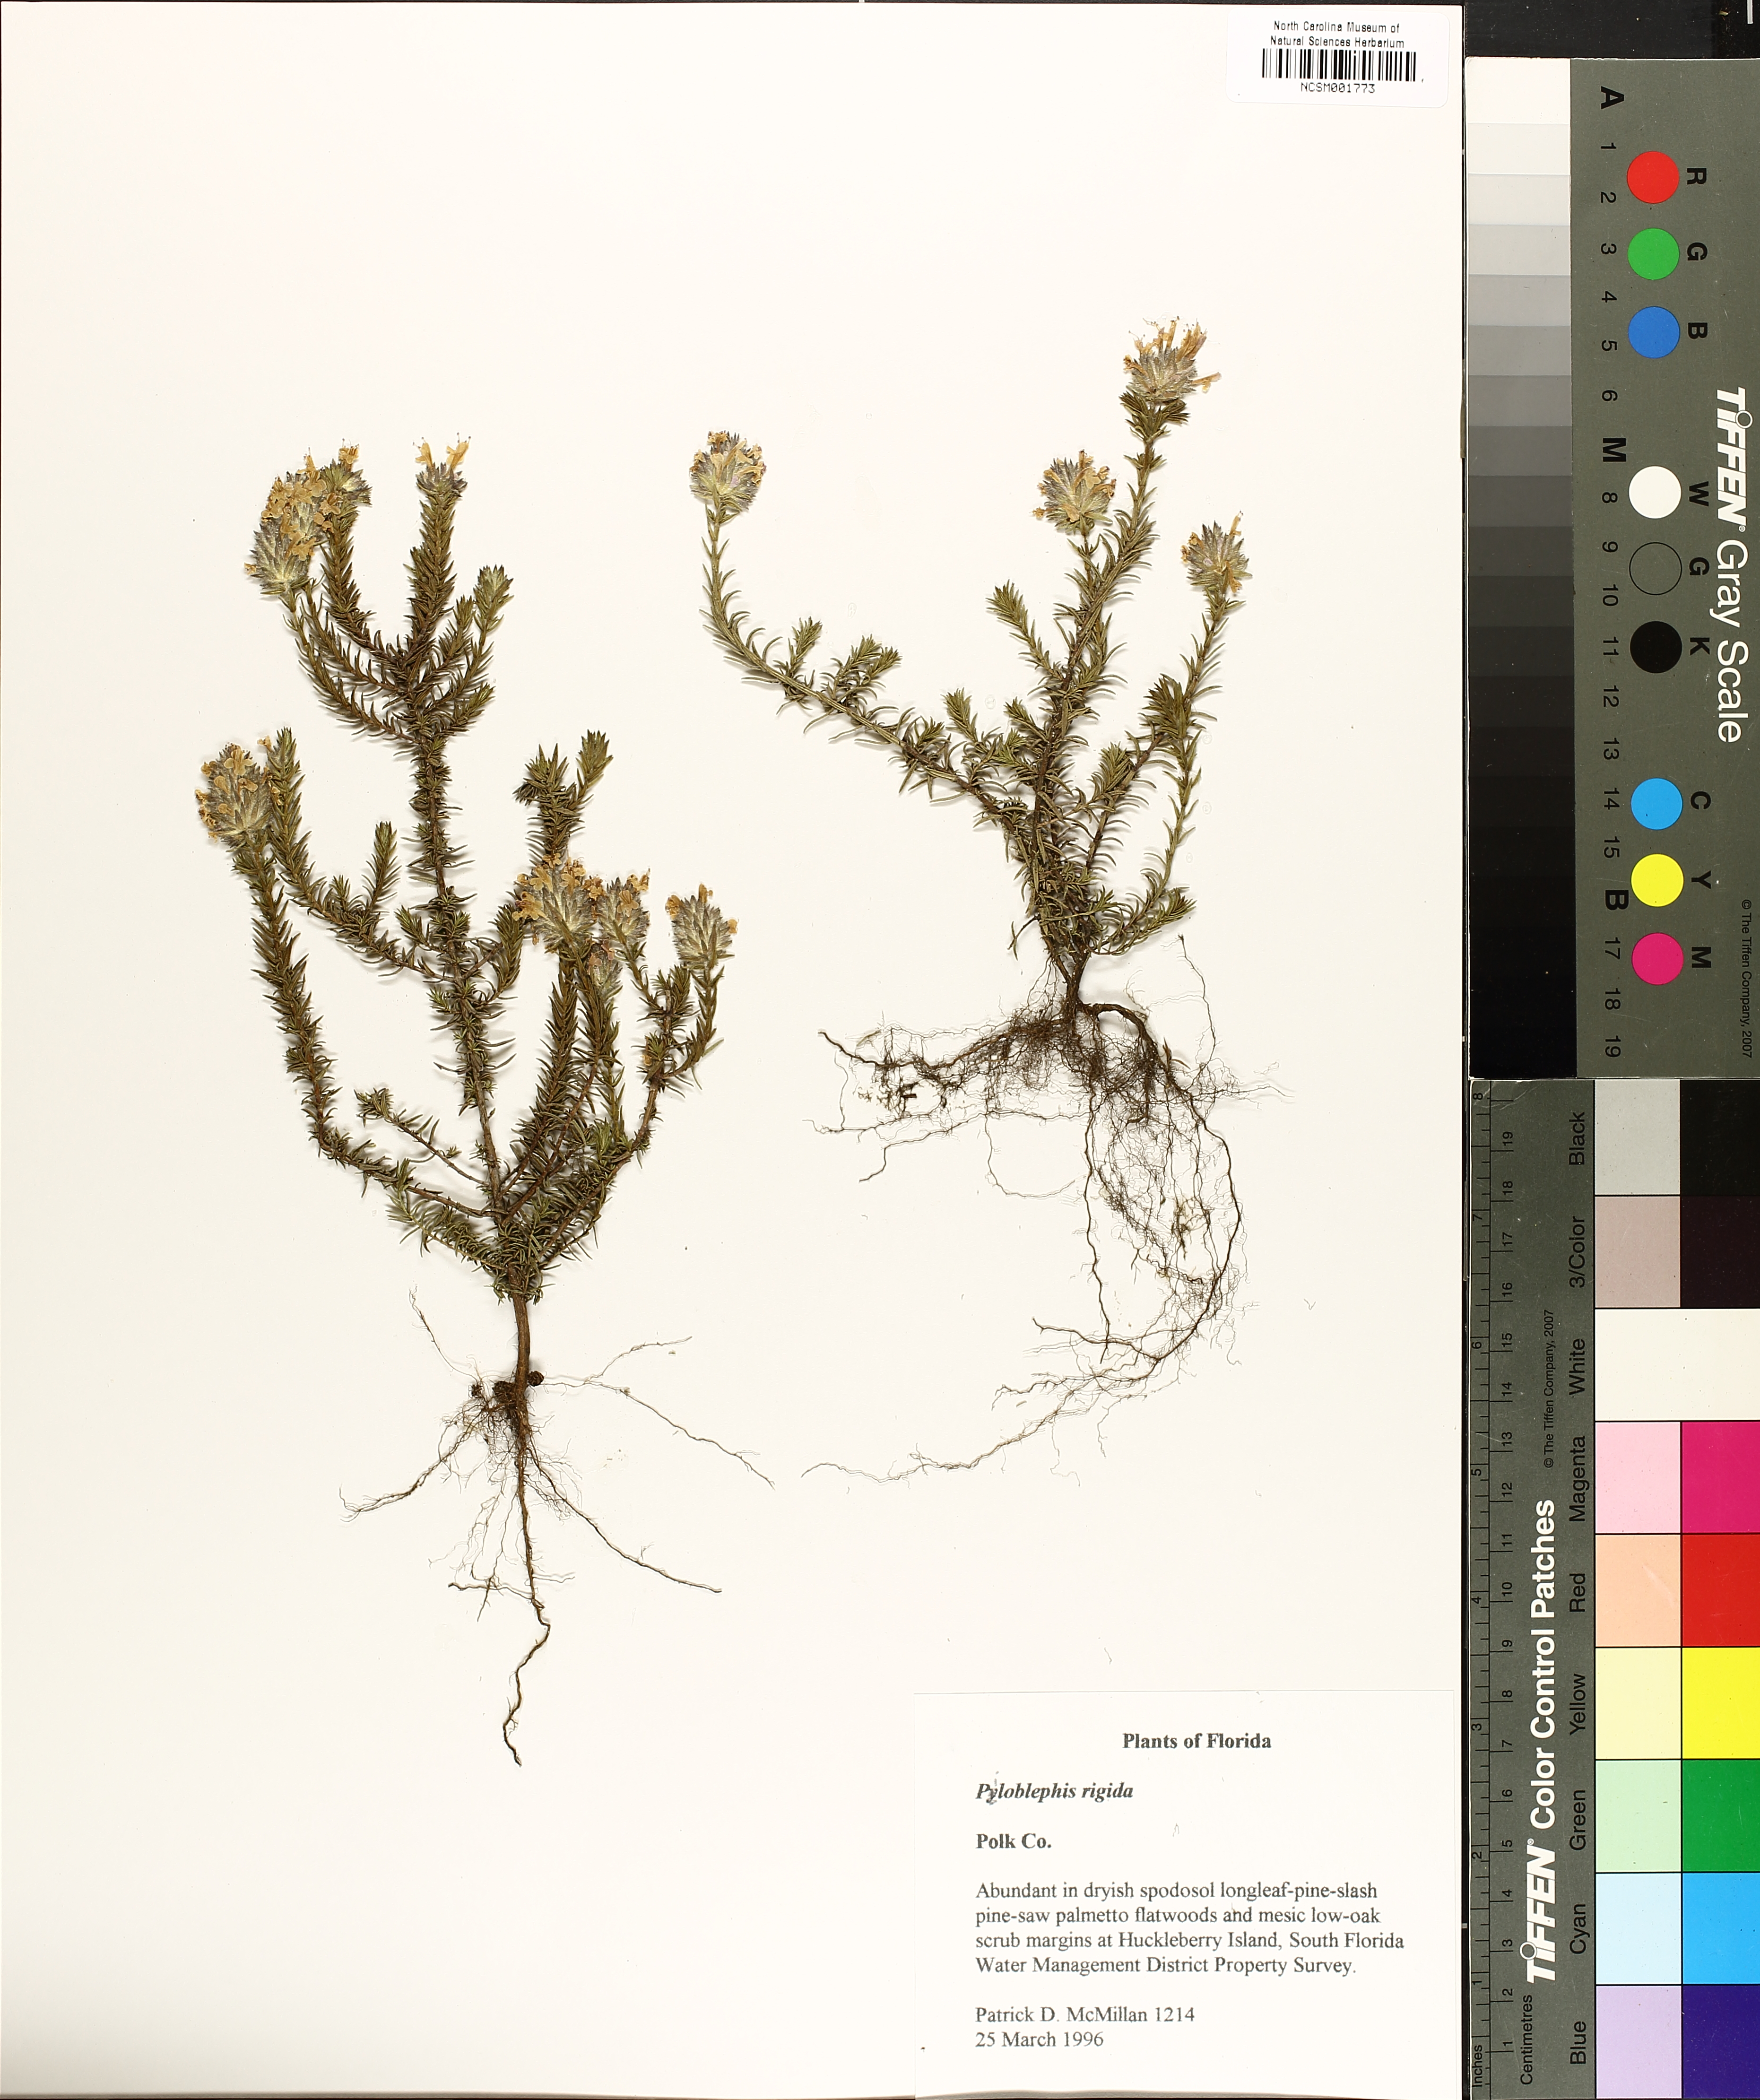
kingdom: Plantae
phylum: Tracheophyta
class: Magnoliopsida
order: Lamiales
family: Lamiaceae
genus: Piloblephis
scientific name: Piloblephis rigida
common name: Wild pennyroyal
